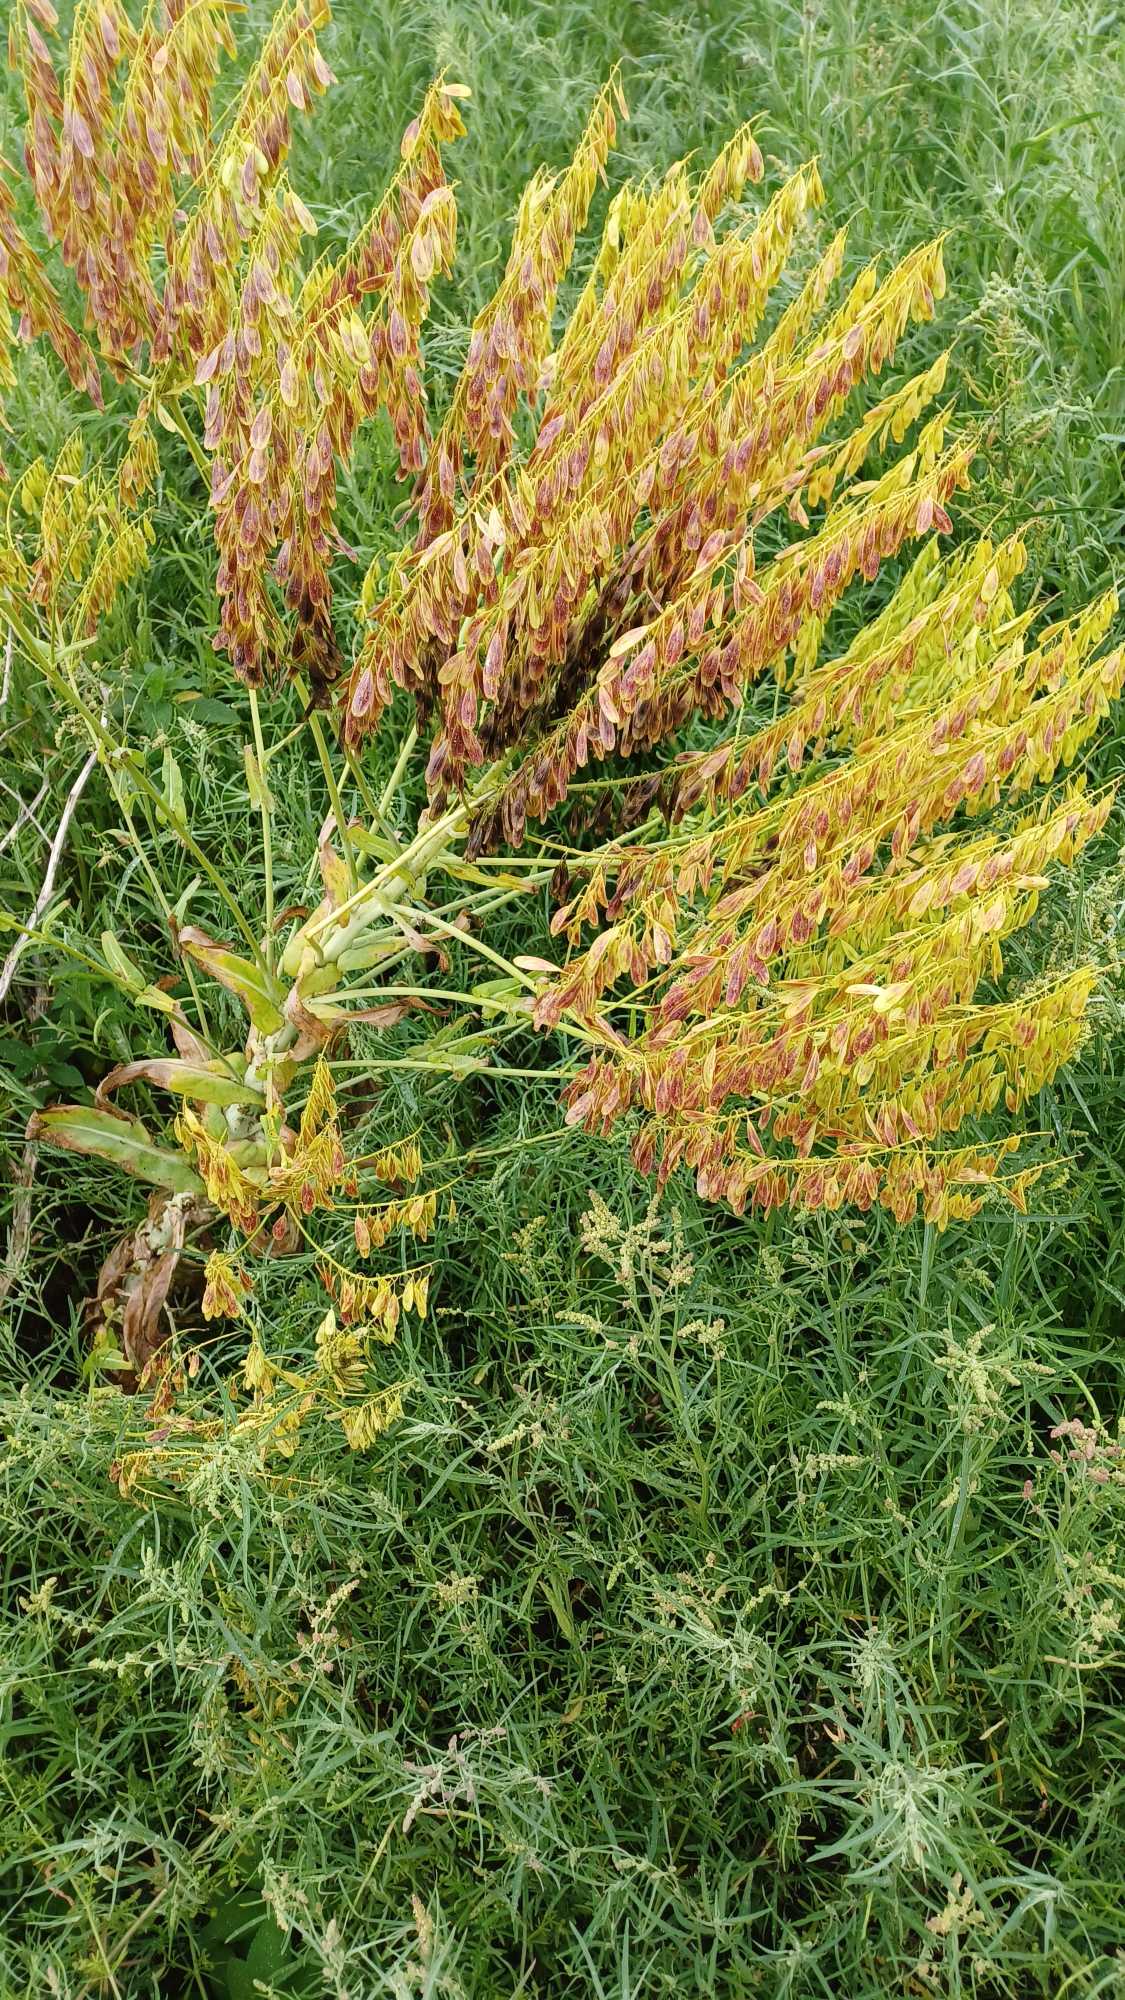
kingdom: Plantae
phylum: Tracheophyta
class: Magnoliopsida
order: Brassicales
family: Brassicaceae
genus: Isatis
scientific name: Isatis tinctoria
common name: Farve-vajd
